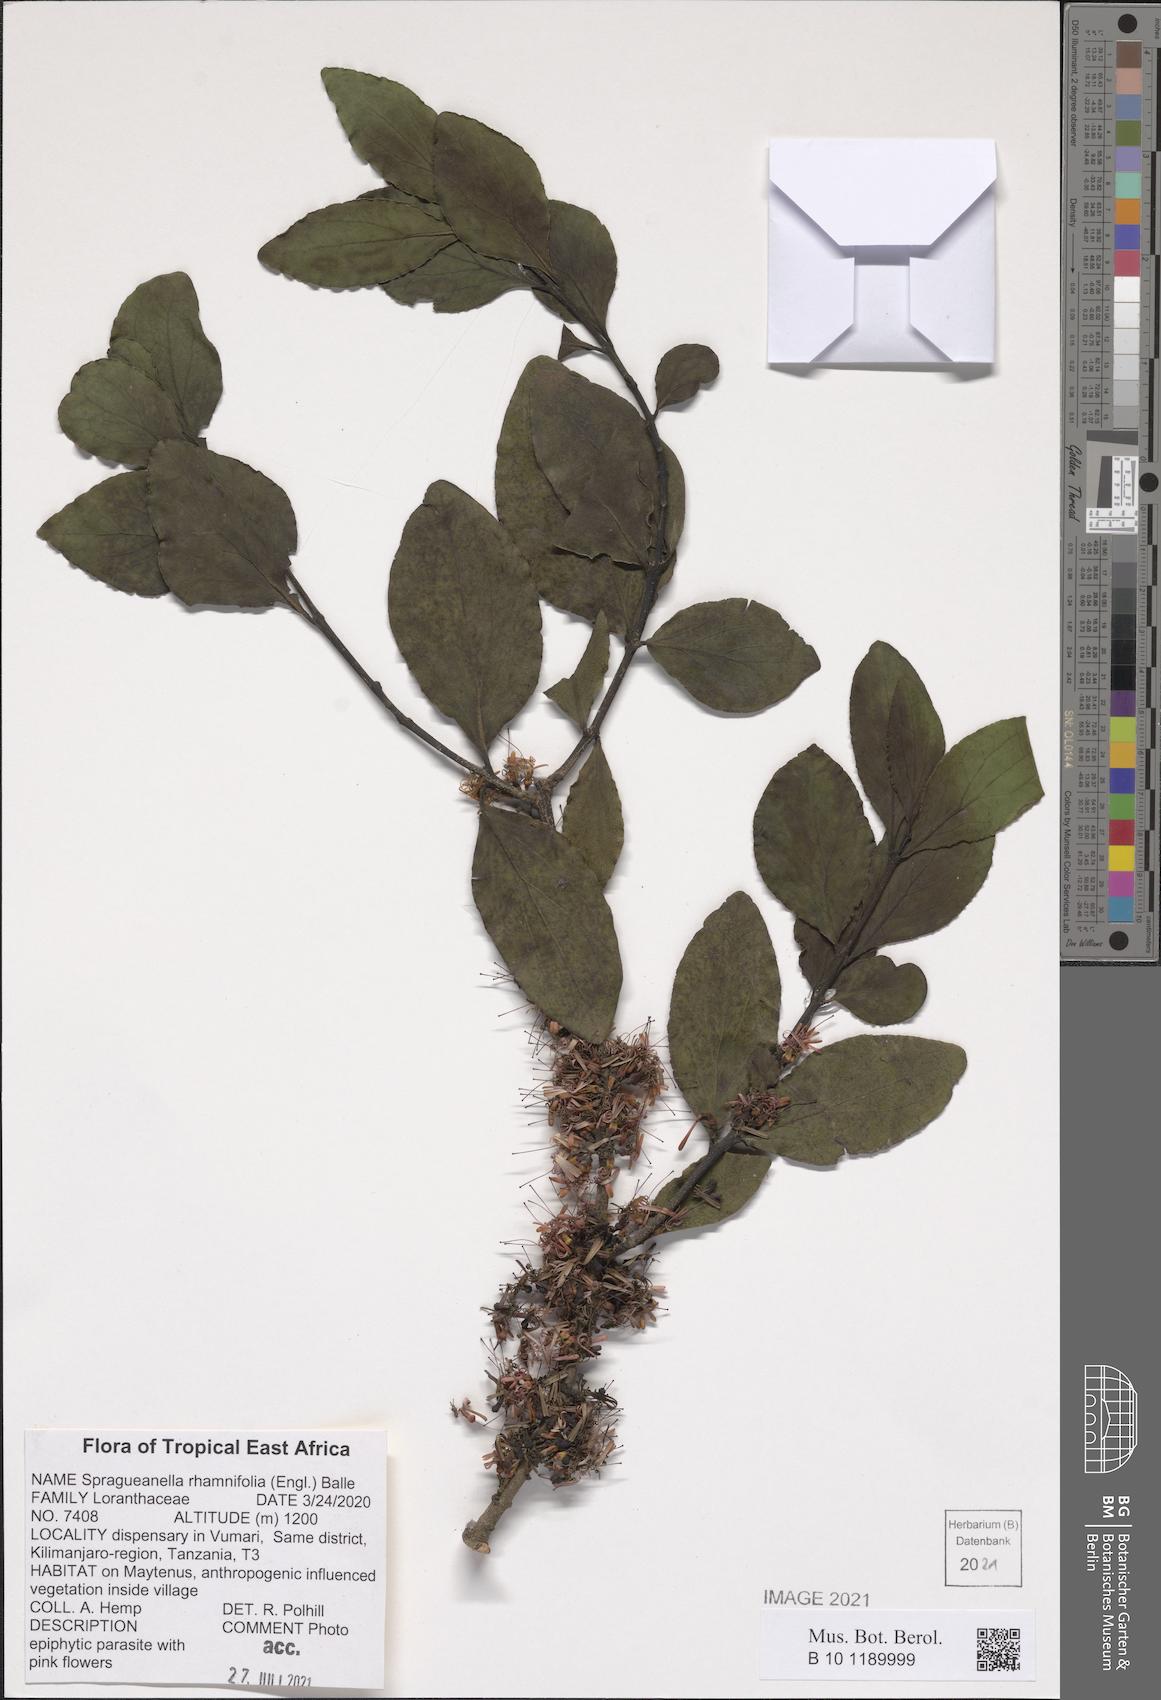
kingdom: Plantae
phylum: Tracheophyta
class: Magnoliopsida
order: Santalales
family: Loranthaceae
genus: Spragueanella
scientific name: Spragueanella rhamnifolia
